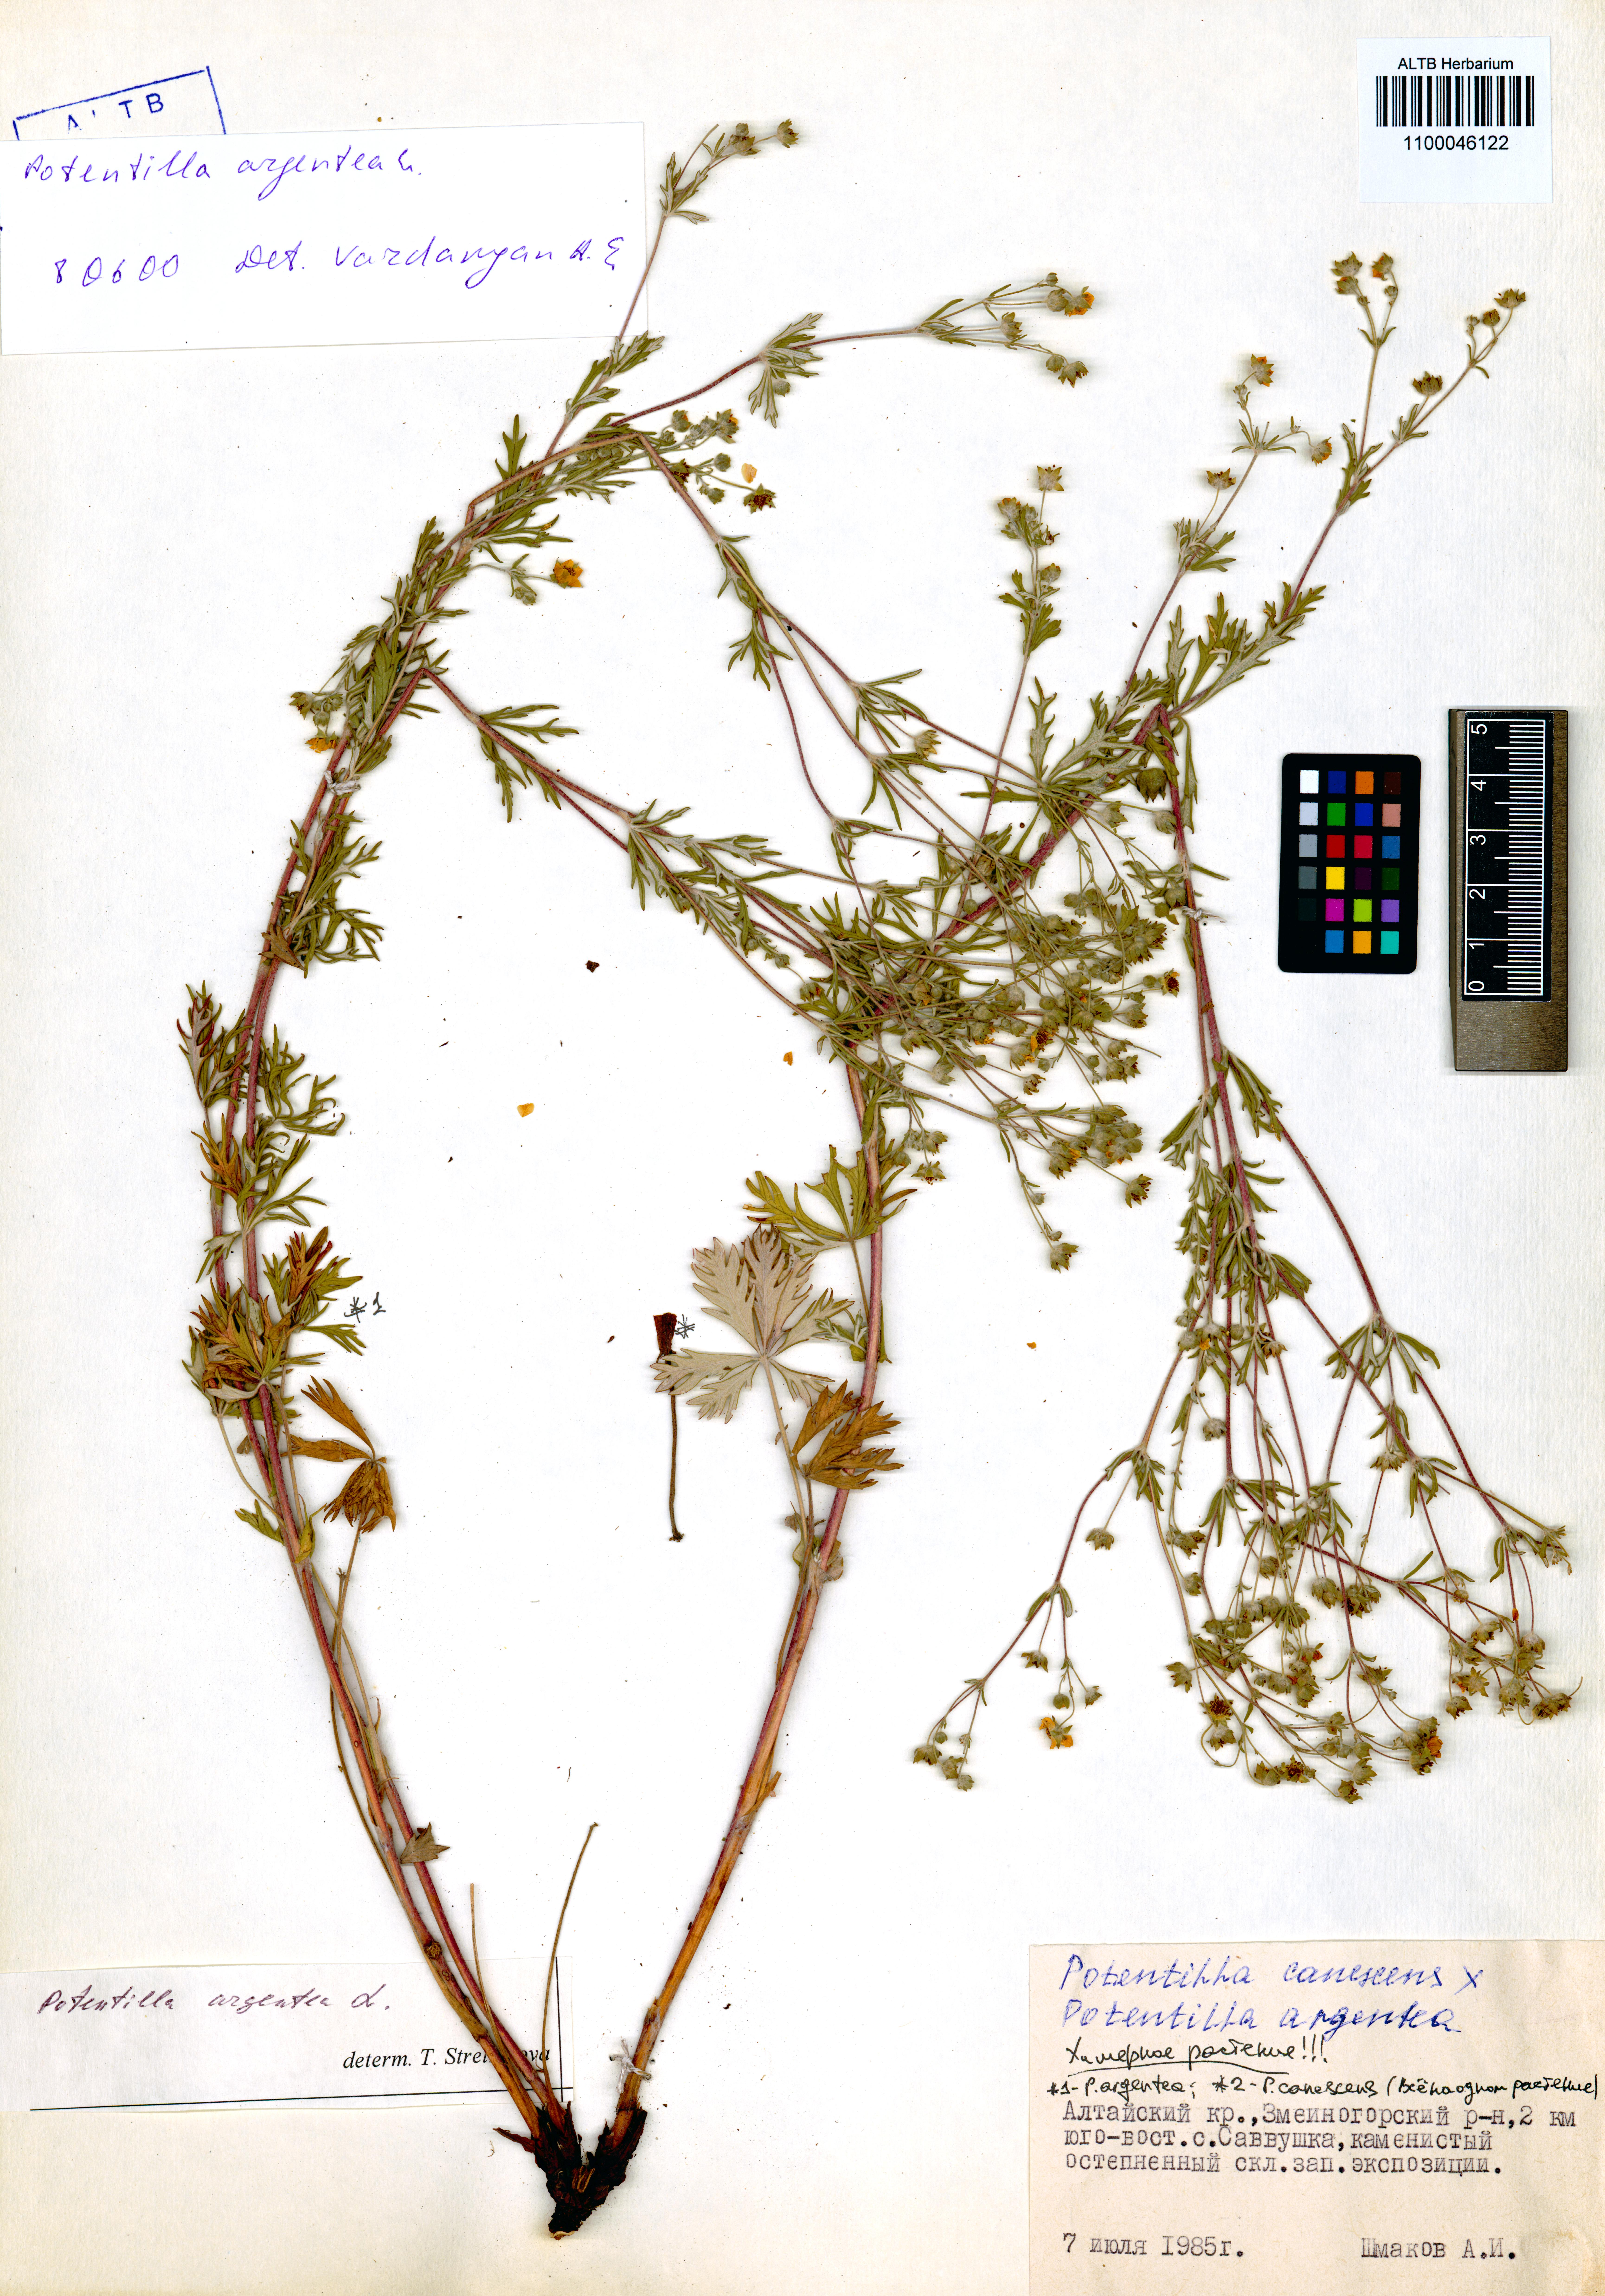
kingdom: Plantae
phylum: Tracheophyta
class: Magnoliopsida
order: Rosales
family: Rosaceae
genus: Potentilla
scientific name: Potentilla argentea
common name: Hoary cinquefoil
